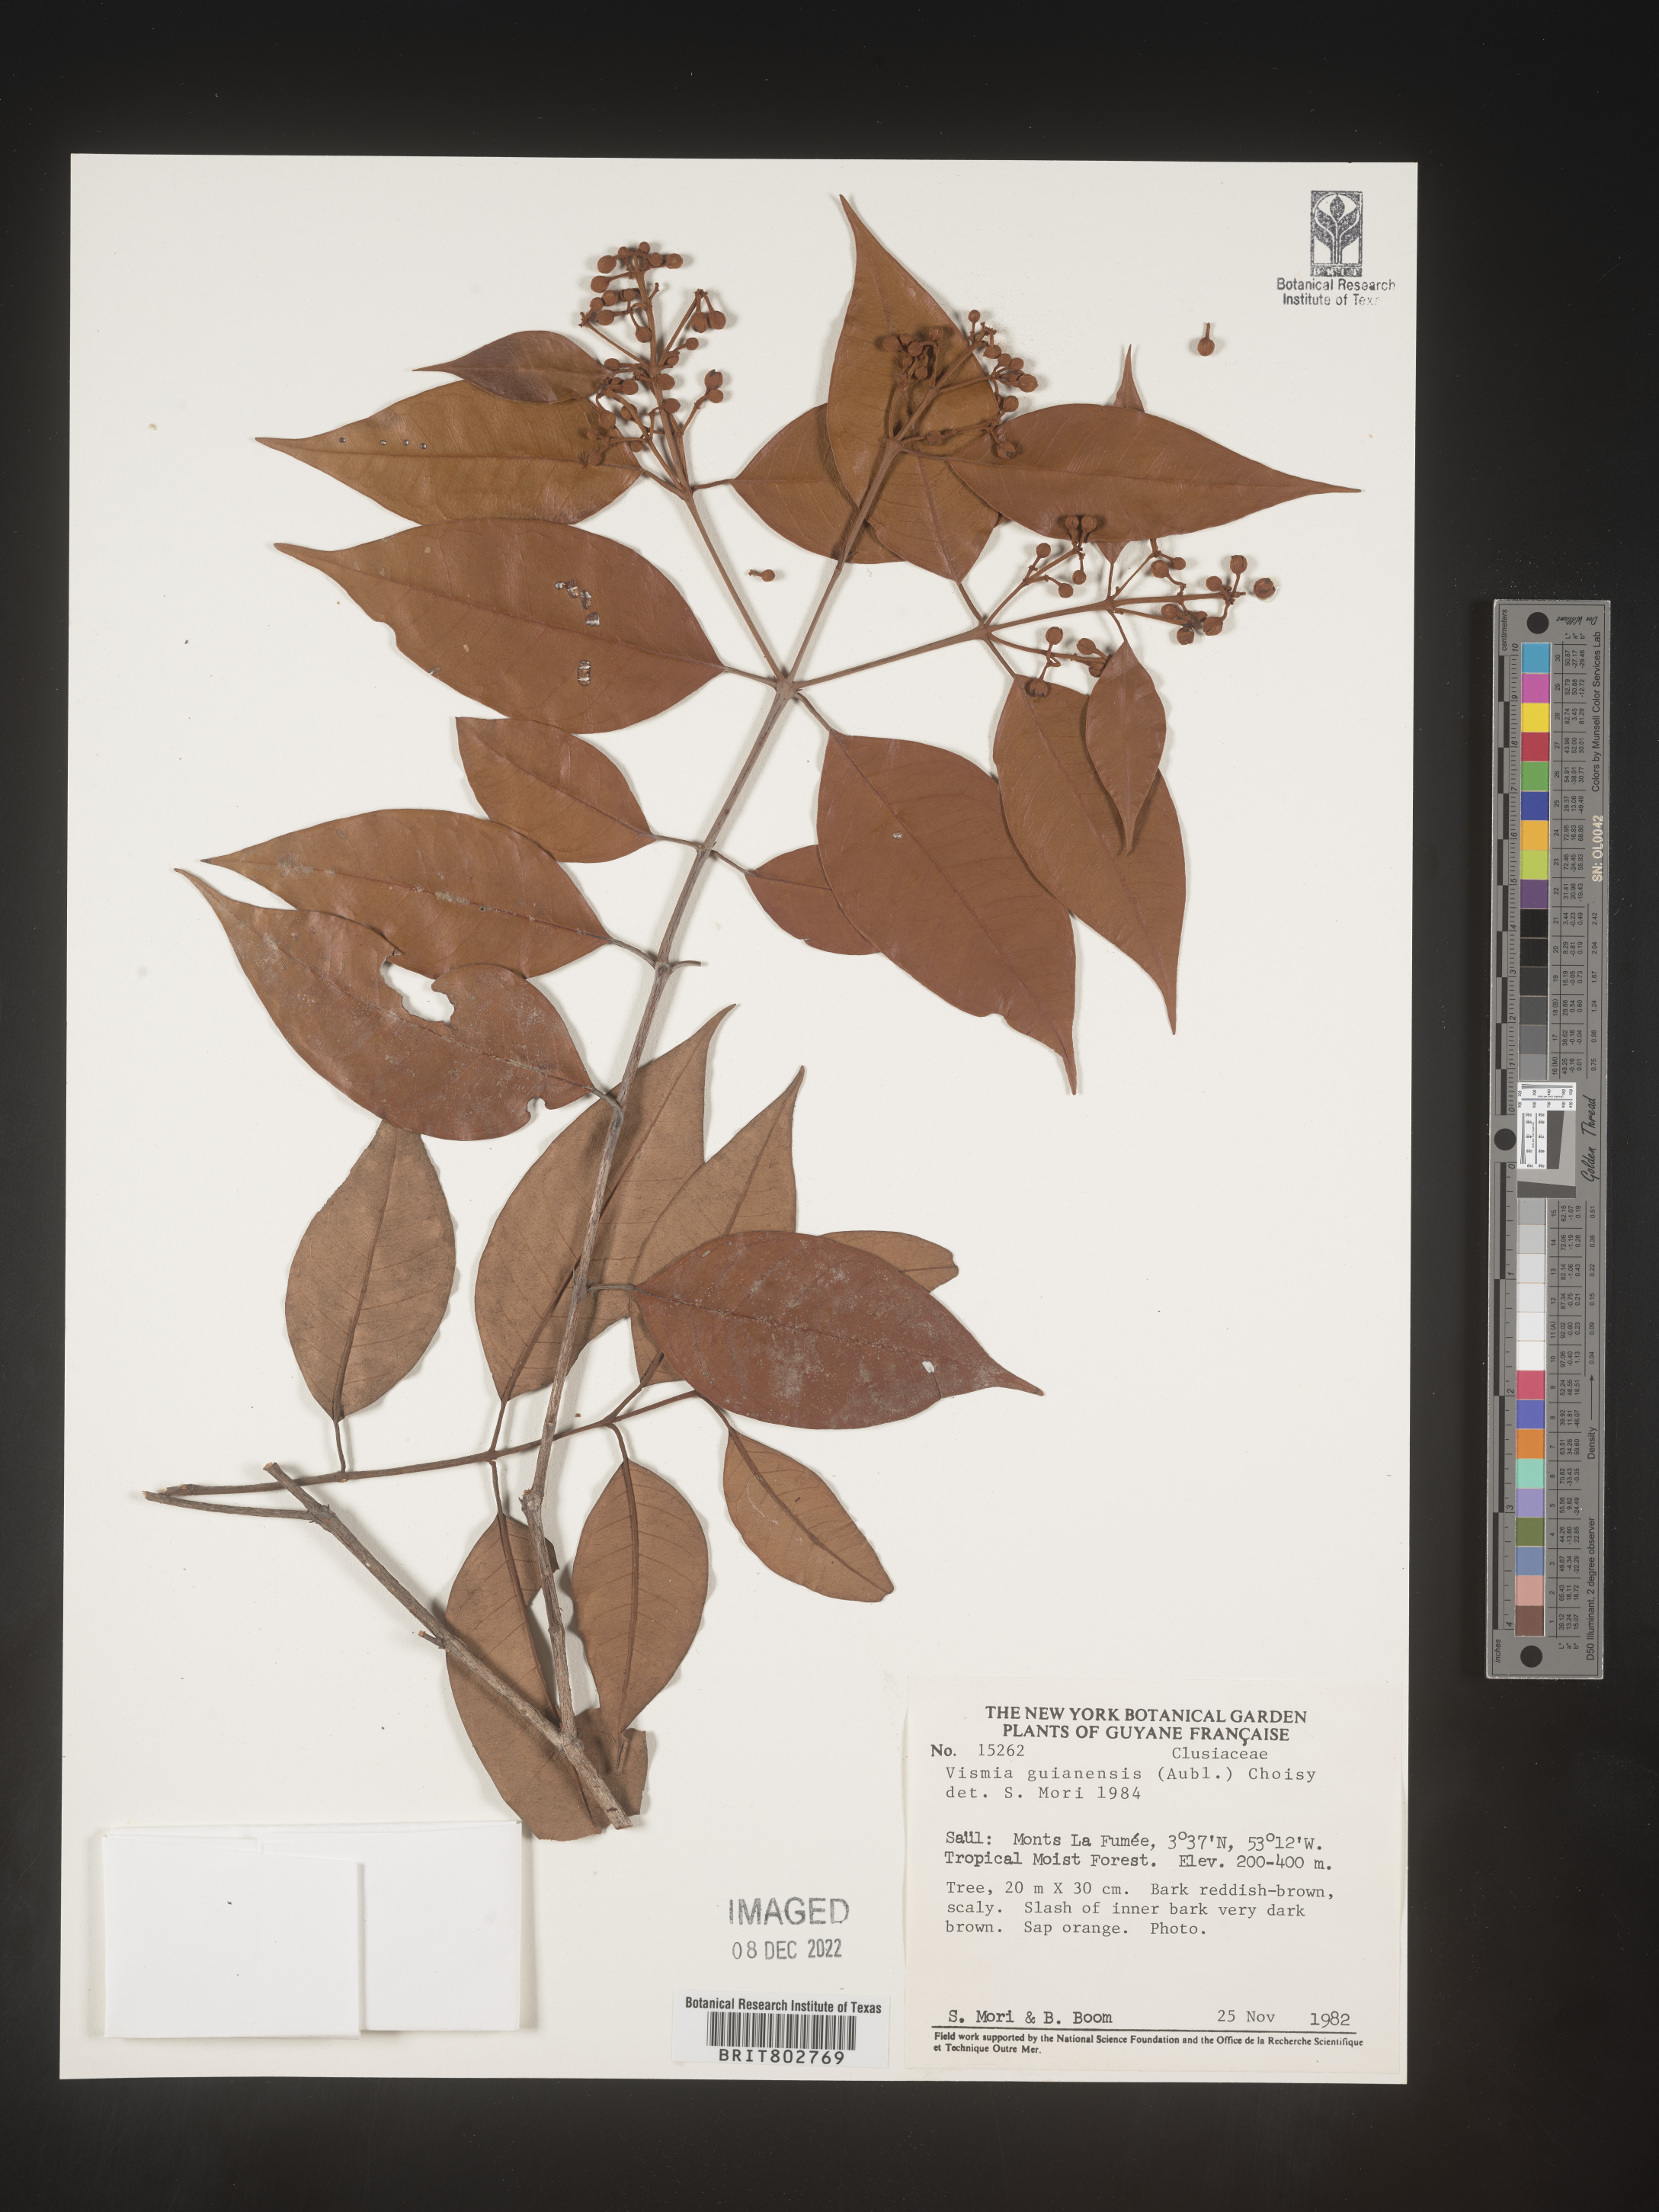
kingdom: Plantae
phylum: Tracheophyta
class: Magnoliopsida
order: Malpighiales
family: Clusiaceae
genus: Clusia
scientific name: Clusia viscida
